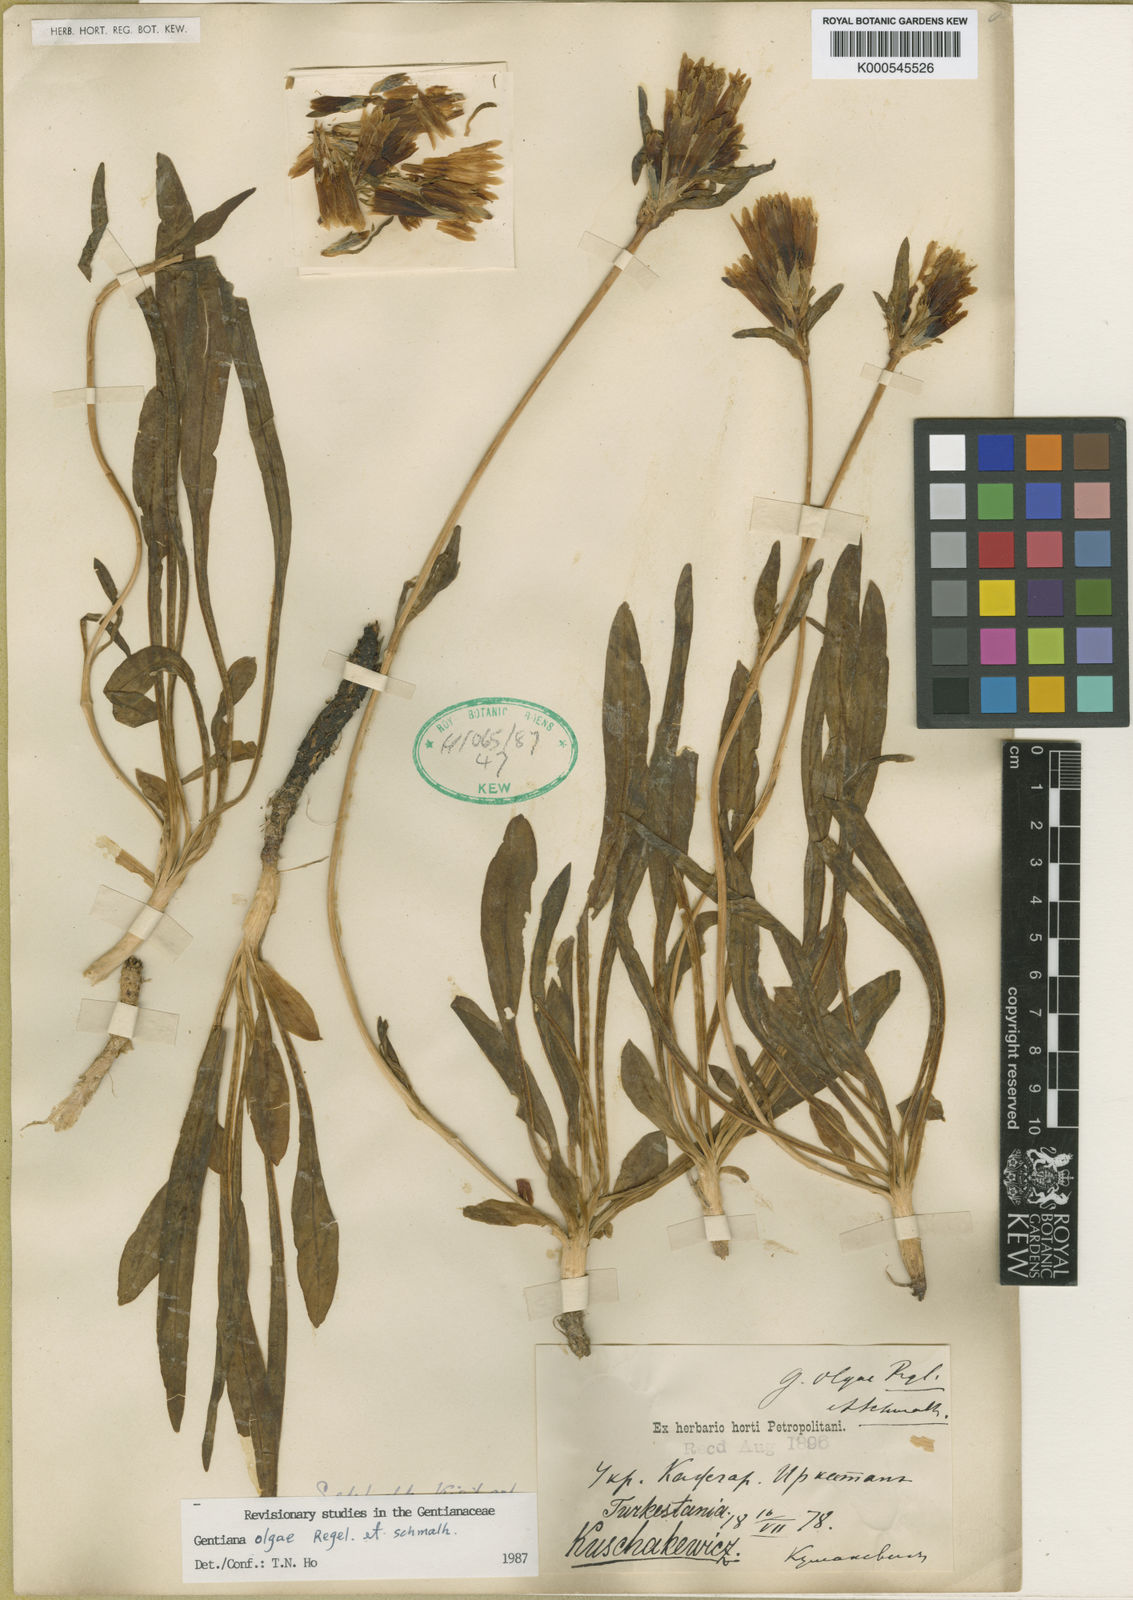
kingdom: Plantae
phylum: Tracheophyta
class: Magnoliopsida
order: Gentianales
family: Gentianaceae
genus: Gentiana
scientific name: Gentiana olgae
